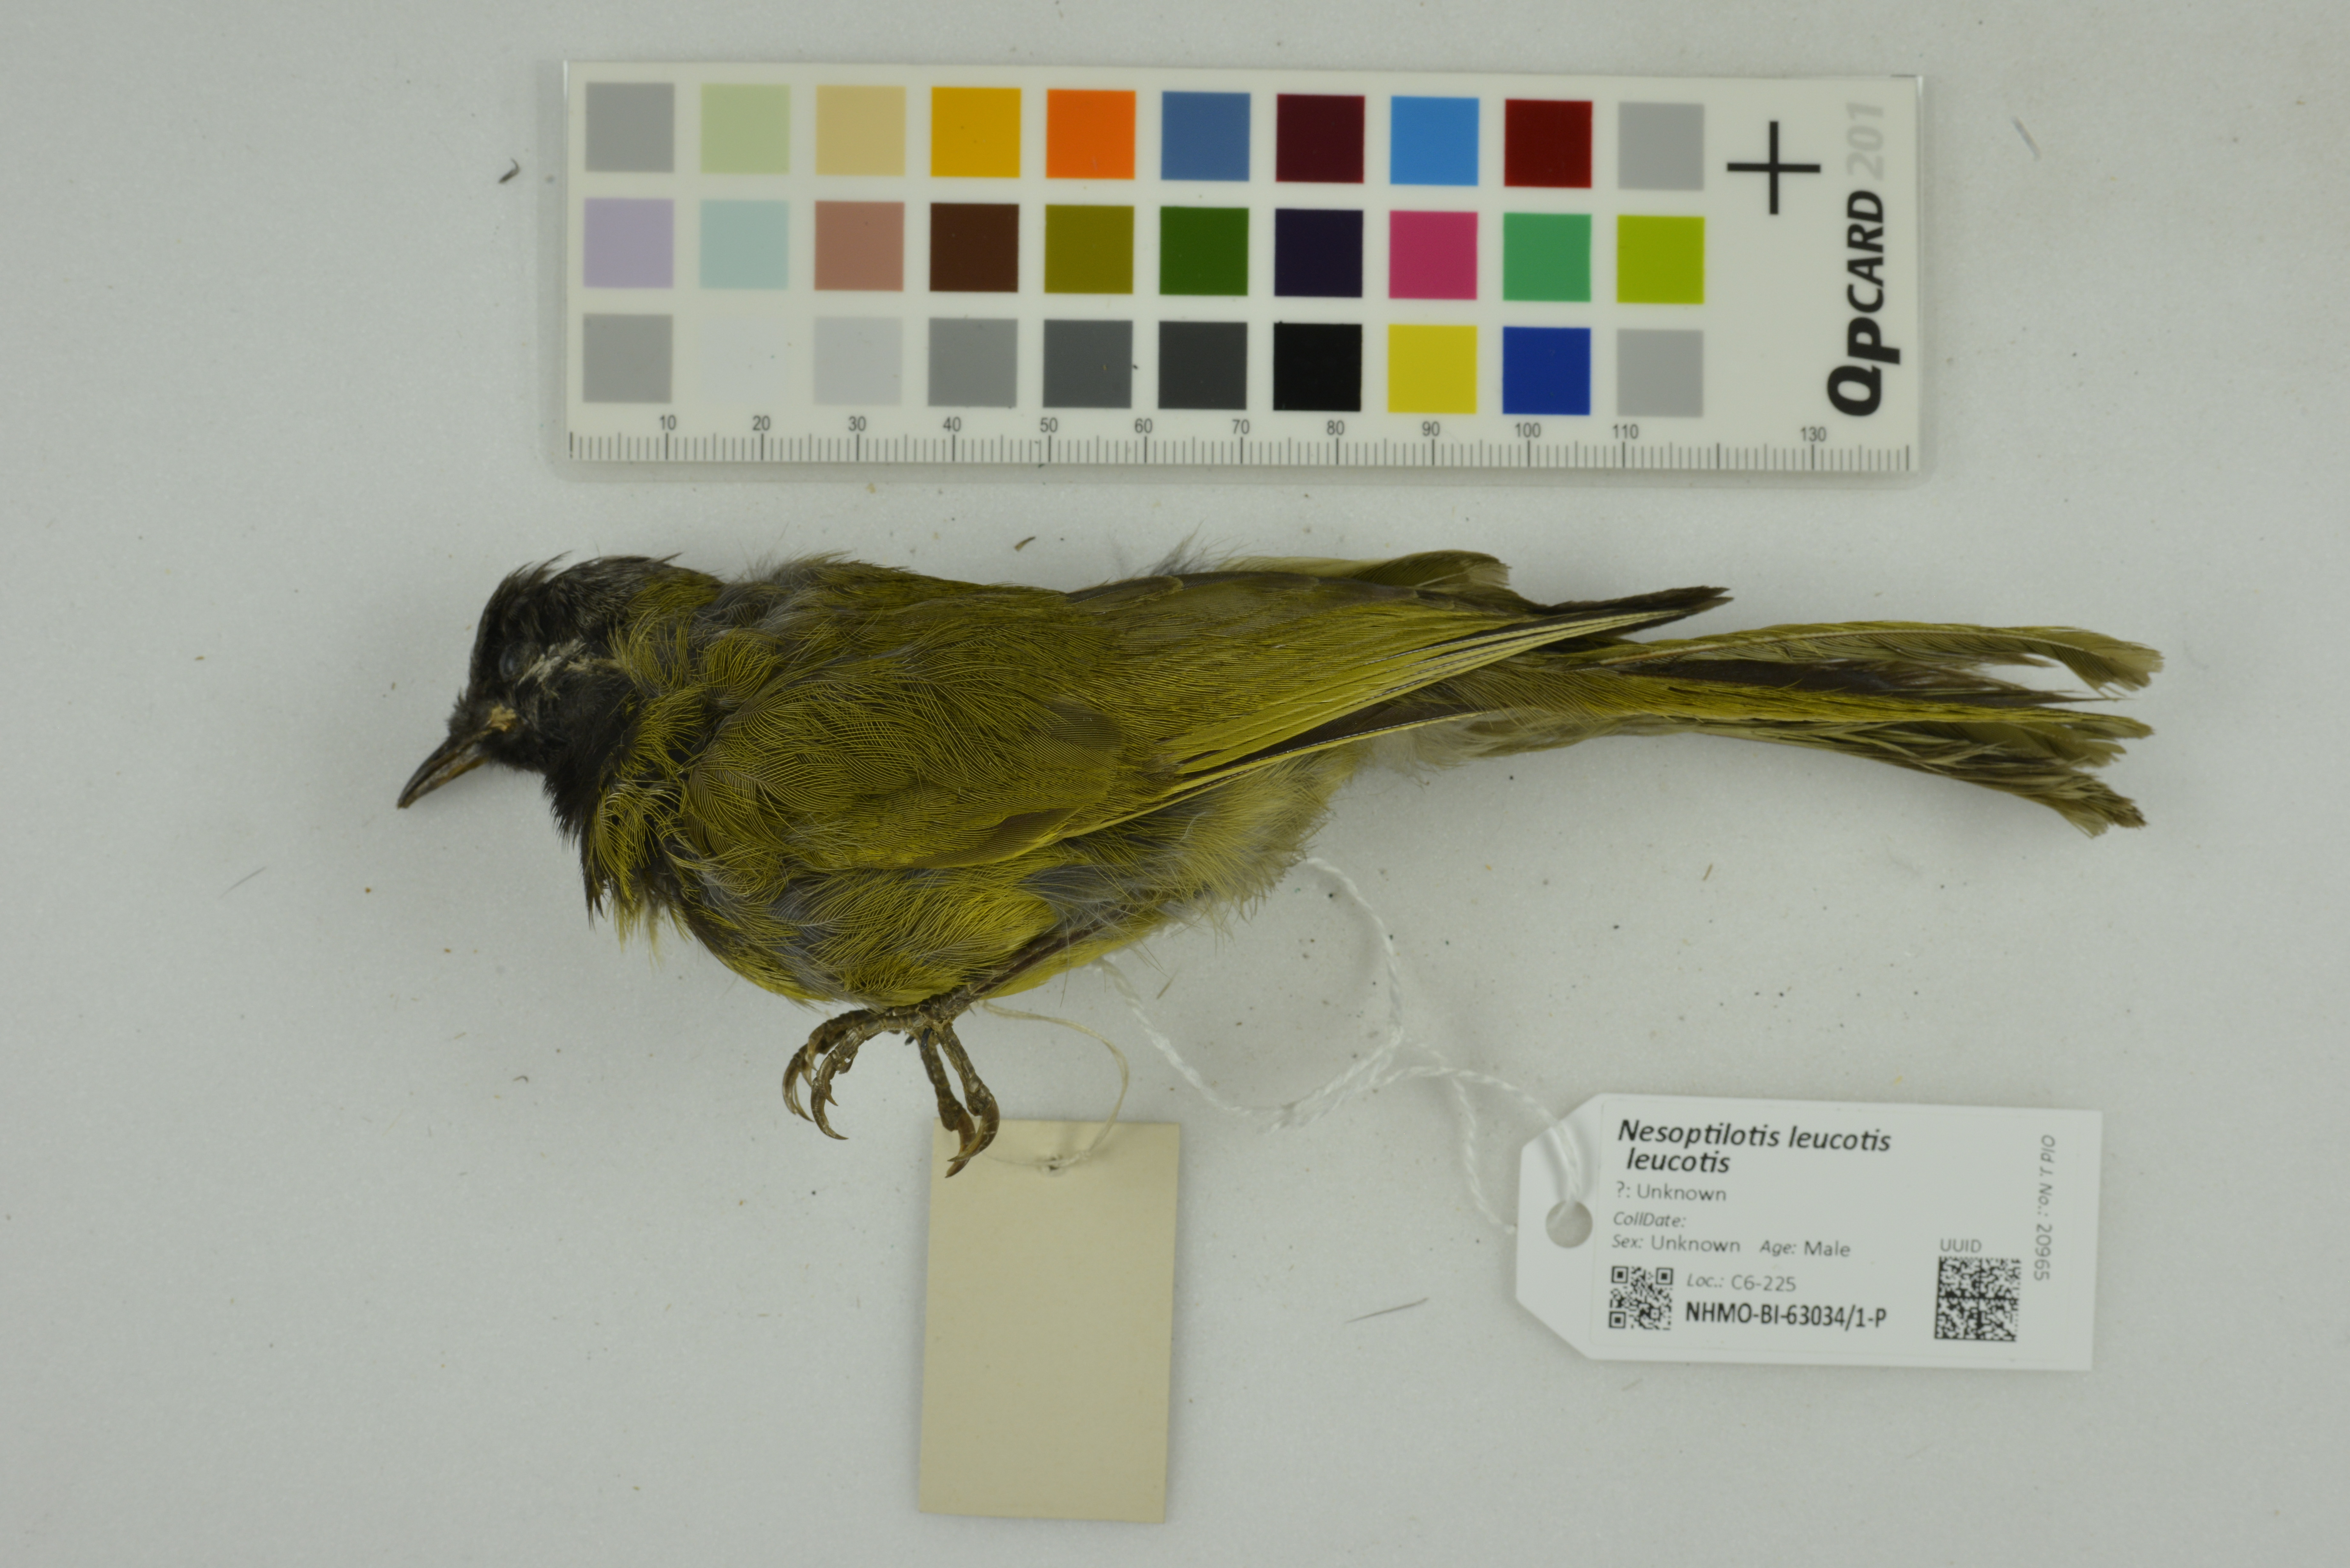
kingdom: Animalia
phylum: Chordata
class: Aves
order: Passeriformes
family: Meliphagidae
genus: Nesoptilotis
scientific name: Nesoptilotis leucotis
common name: White-eared honeyeater
